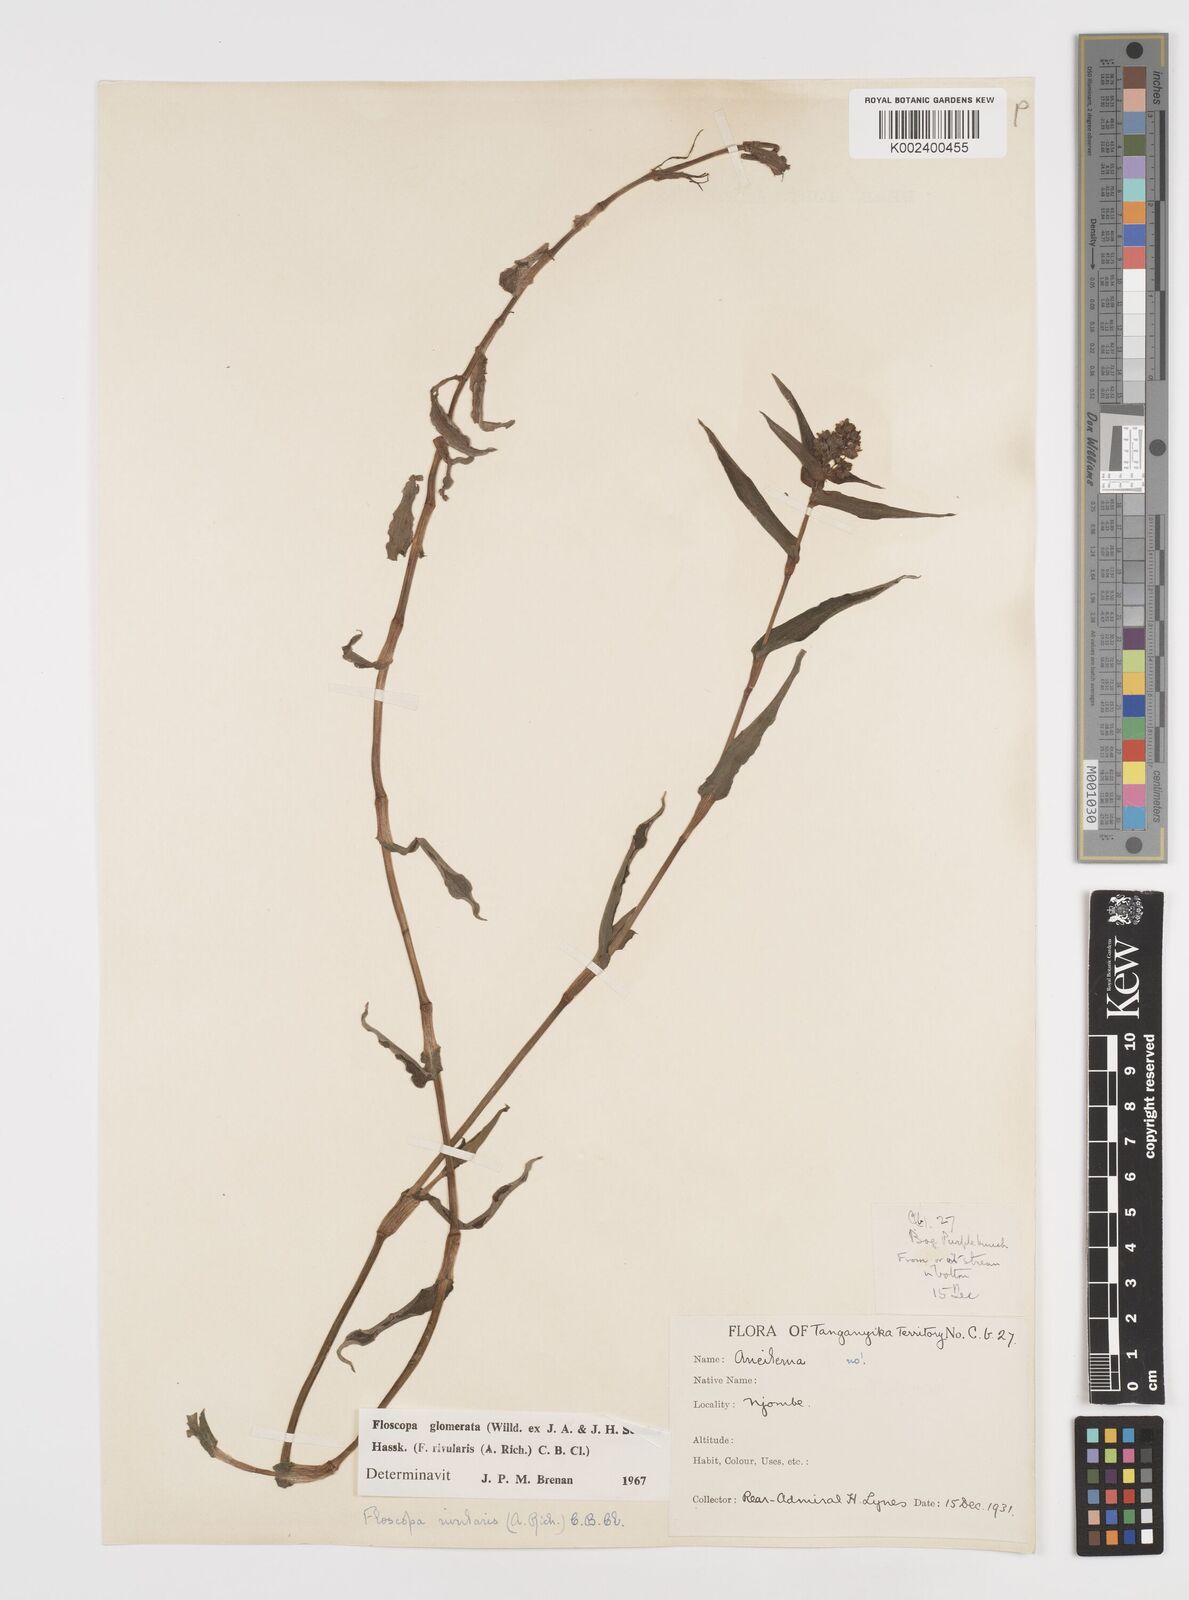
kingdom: Plantae
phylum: Tracheophyta
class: Liliopsida
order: Commelinales
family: Commelinaceae
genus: Floscopa
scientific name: Floscopa glomerata
